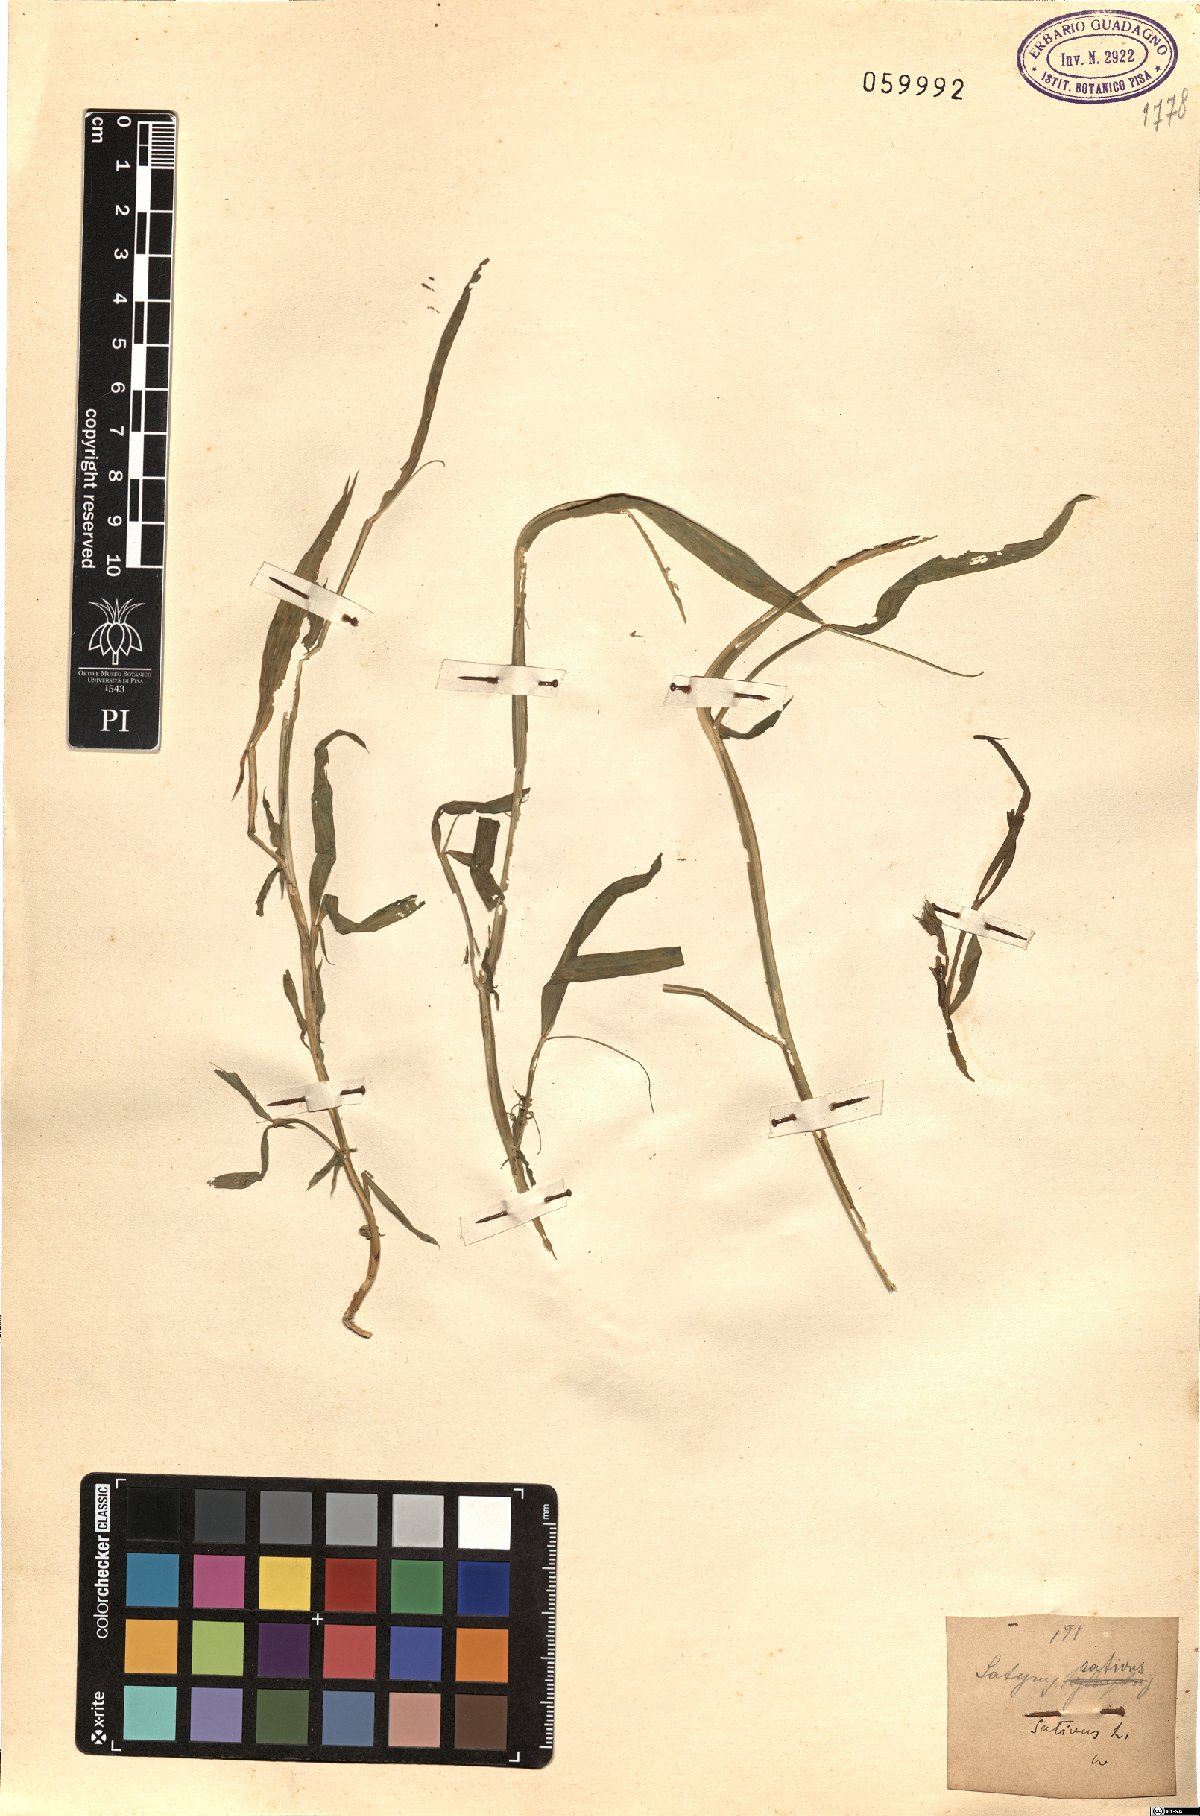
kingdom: Plantae
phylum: Tracheophyta
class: Magnoliopsida
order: Fabales
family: Fabaceae
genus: Lathyrus
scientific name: Lathyrus sativus
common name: Indian pea
